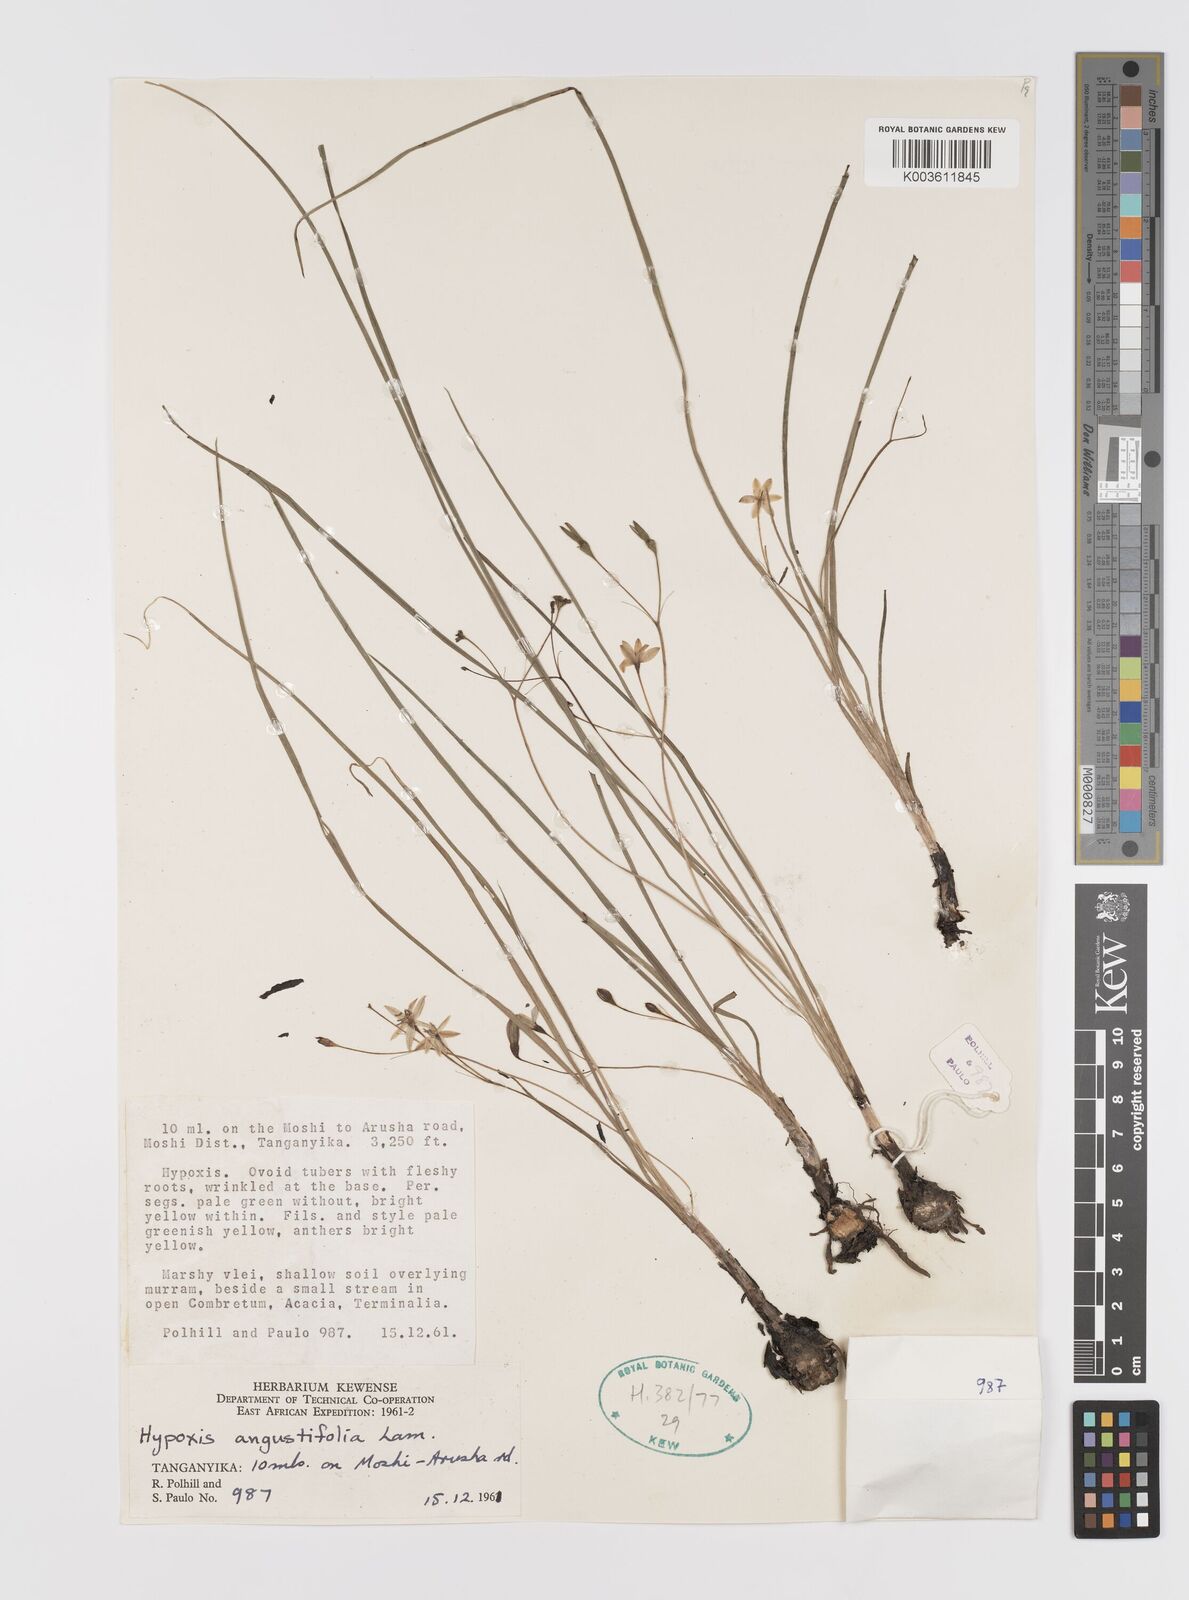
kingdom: Plantae
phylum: Tracheophyta
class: Liliopsida
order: Asparagales
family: Hypoxidaceae
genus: Hypoxis
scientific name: Hypoxis angustifolia
